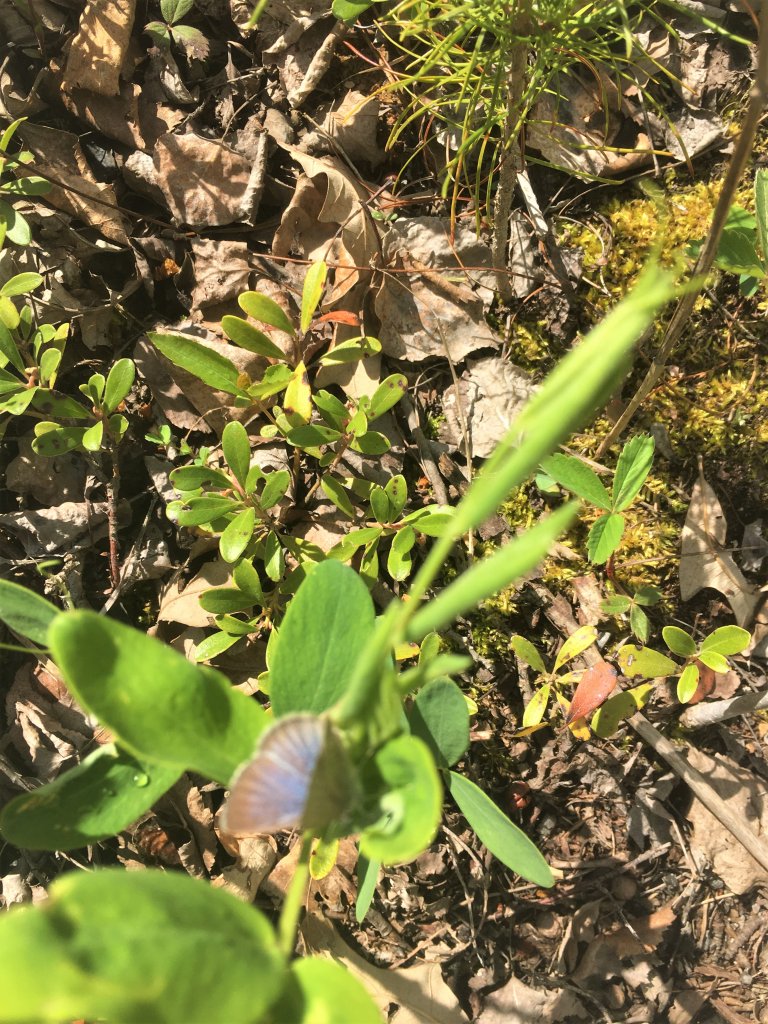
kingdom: Animalia
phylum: Arthropoda
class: Insecta
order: Lepidoptera
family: Lycaenidae
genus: Glaucopsyche
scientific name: Glaucopsyche lygdamus
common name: Silvery Blue
